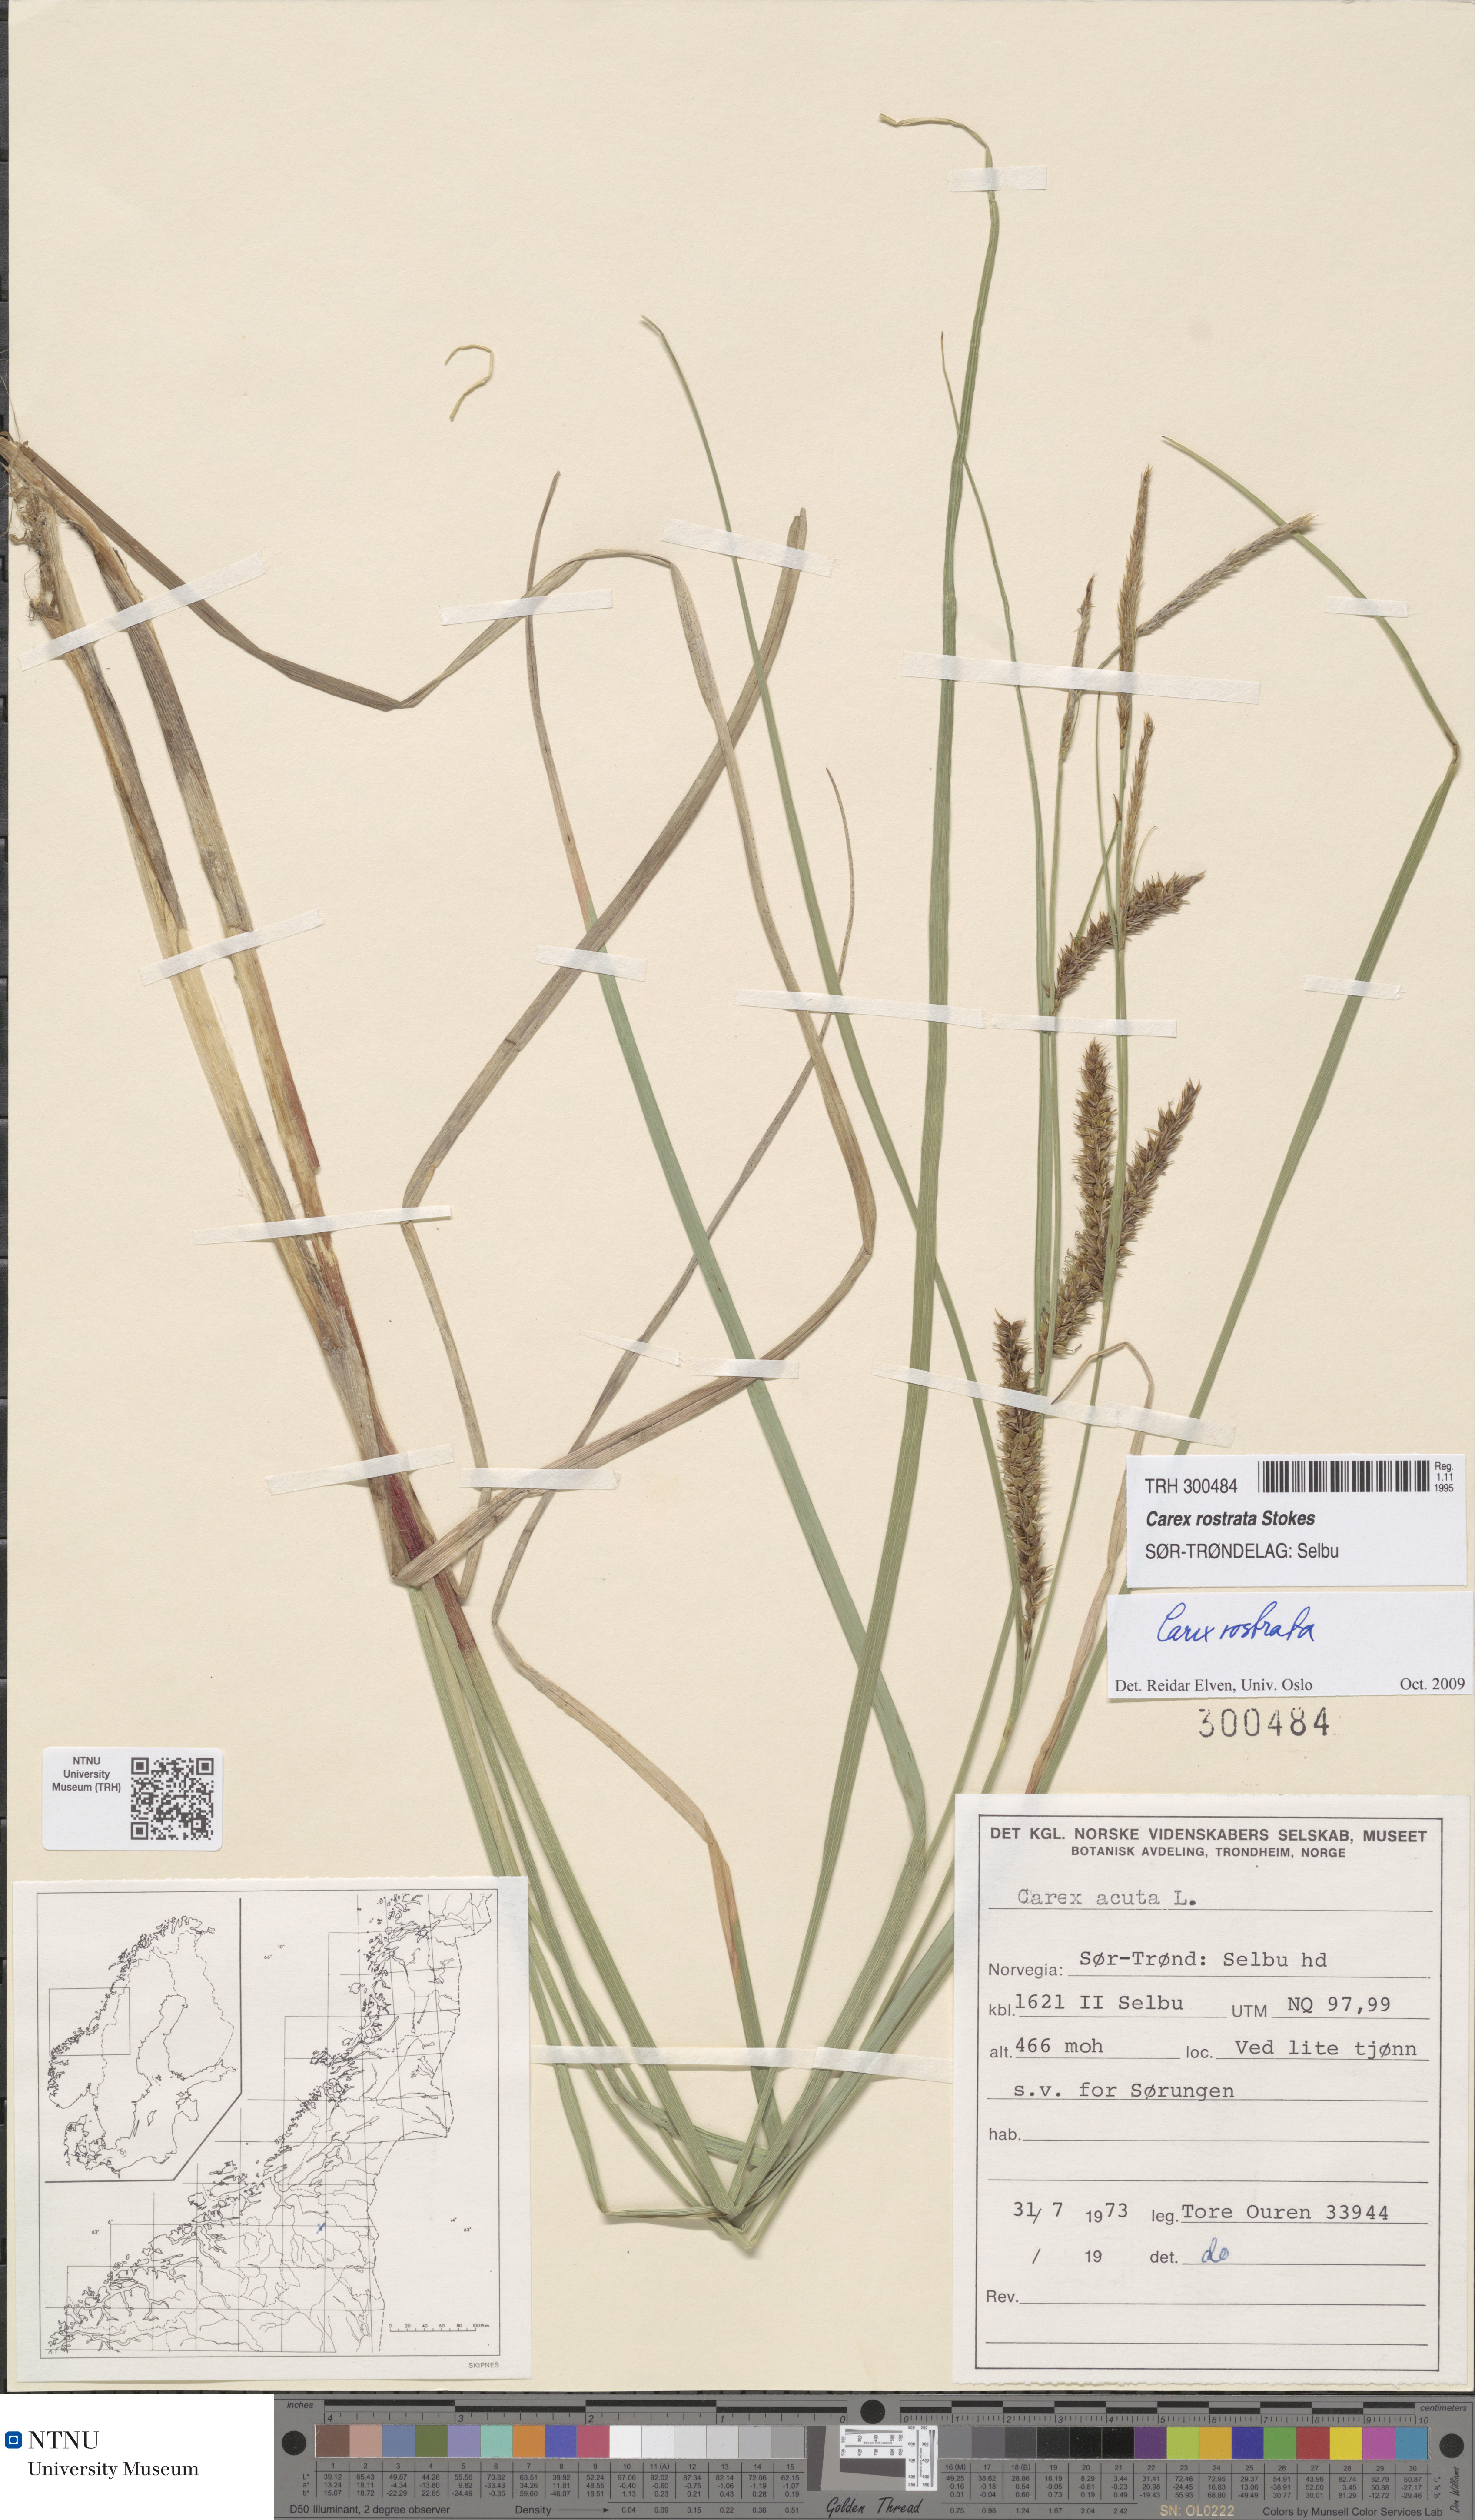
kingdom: Plantae
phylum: Tracheophyta
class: Liliopsida
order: Poales
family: Cyperaceae
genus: Carex
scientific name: Carex rostrata
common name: Bottle sedge
